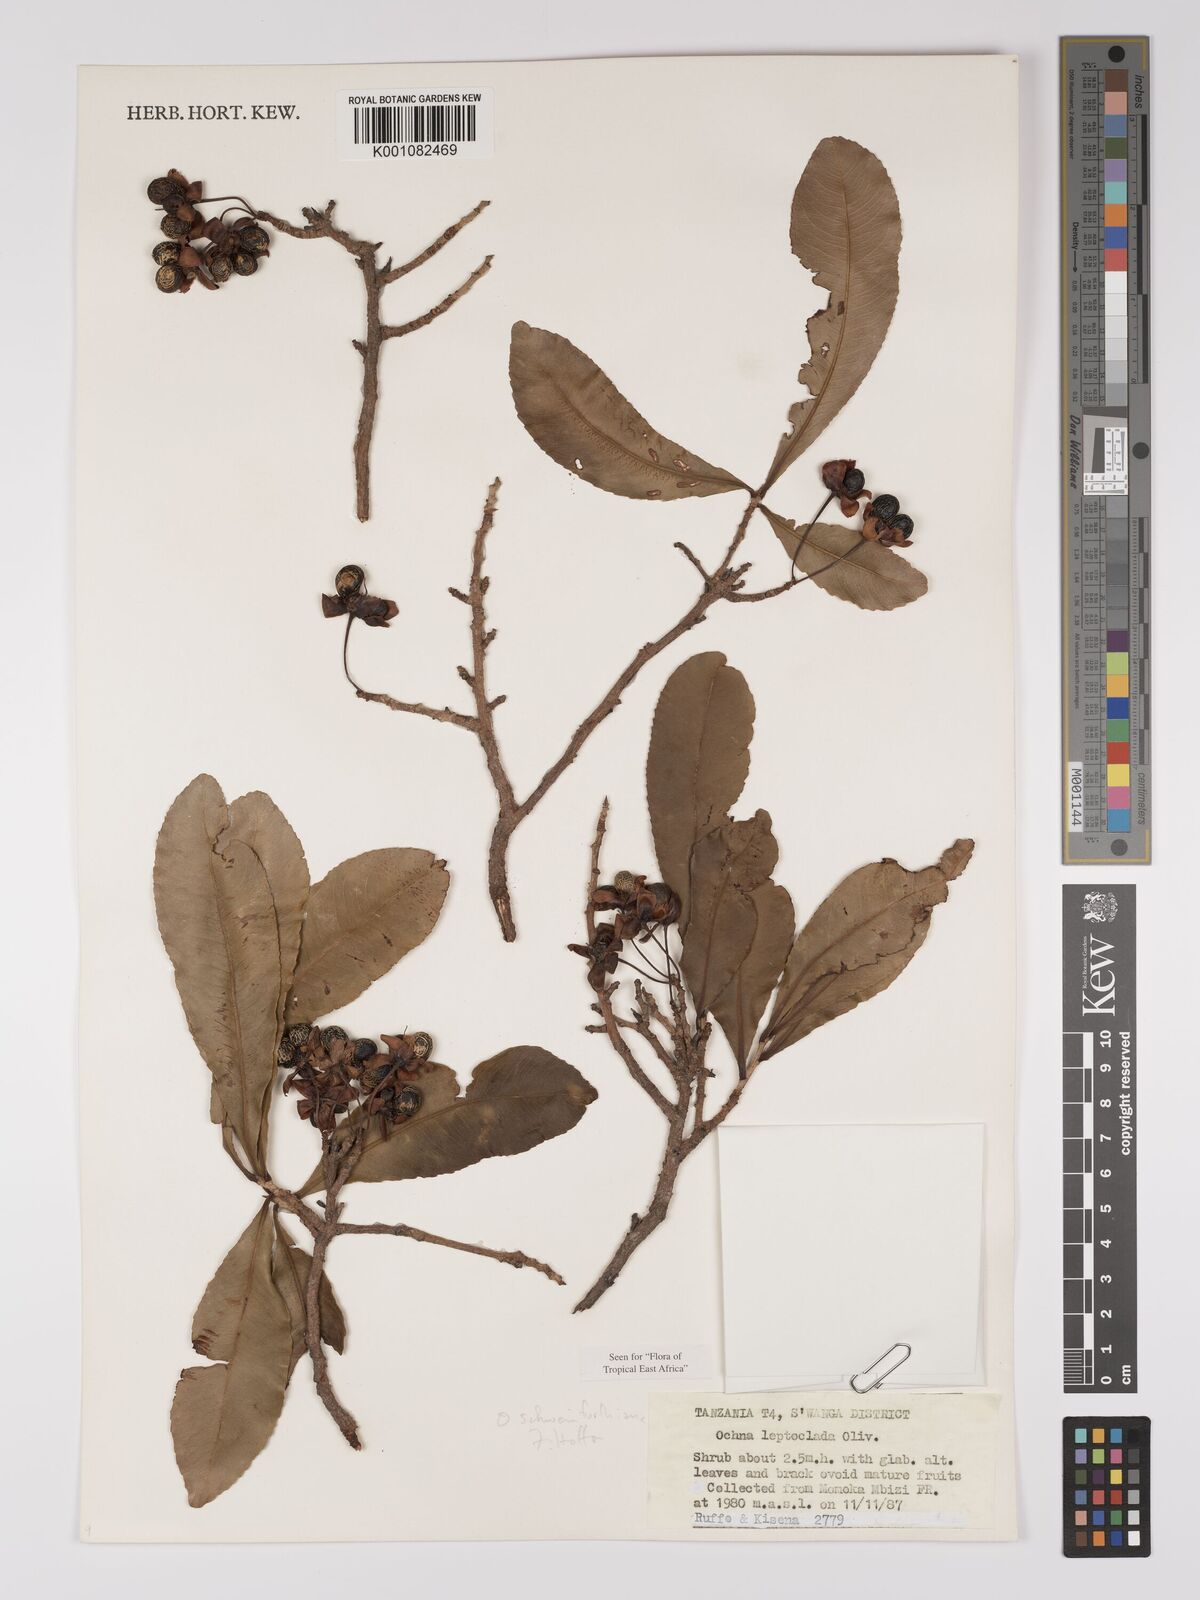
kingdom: Plantae
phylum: Tracheophyta
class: Magnoliopsida
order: Malpighiales
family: Ochnaceae
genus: Ochna
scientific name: Ochna schweinfurthiana
